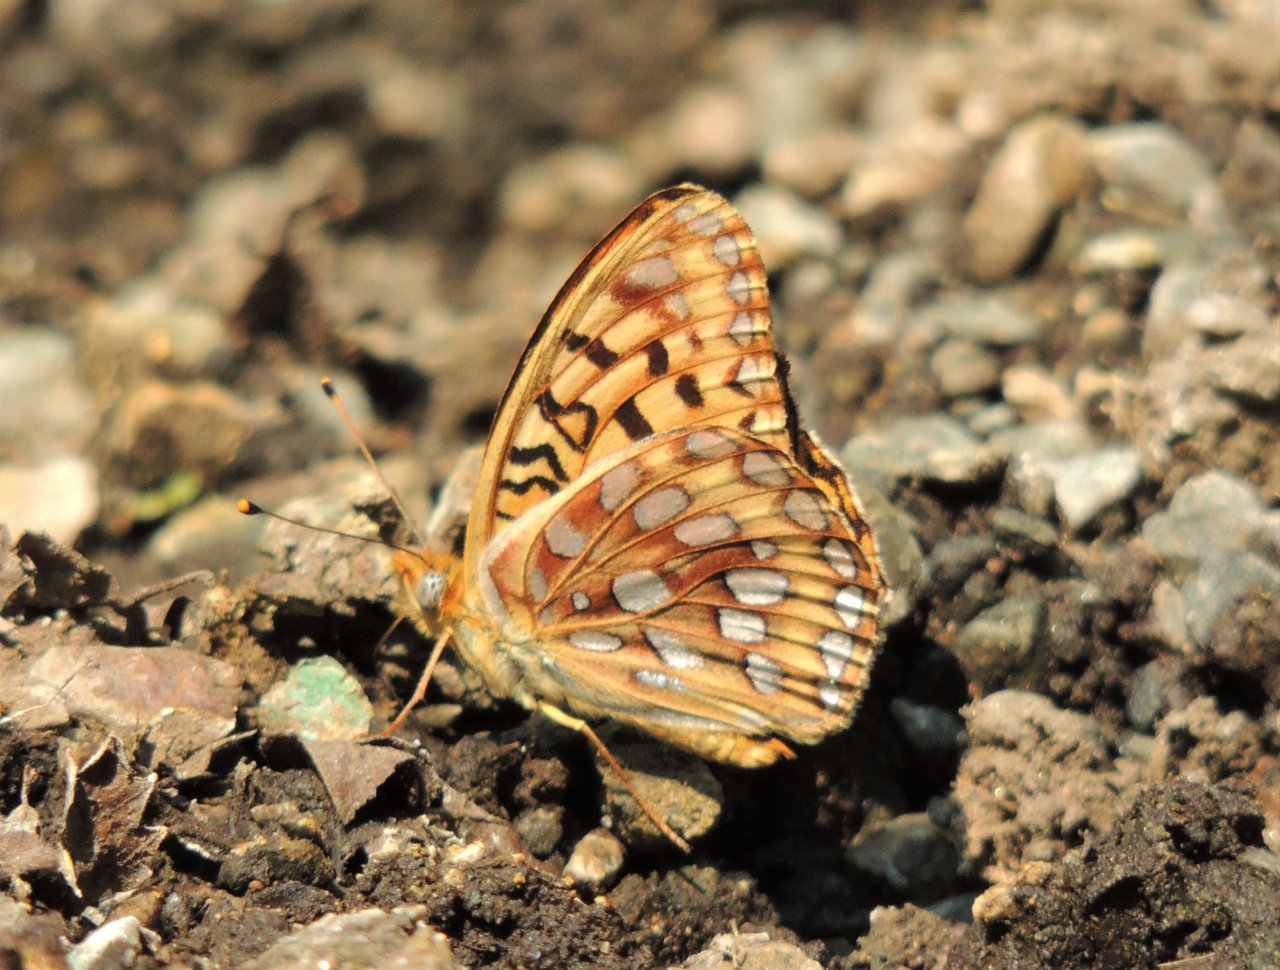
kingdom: Animalia
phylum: Arthropoda
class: Insecta
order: Lepidoptera
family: Nymphalidae
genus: Speyeria
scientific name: Speyeria zerene
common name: Zerene Fritillary
